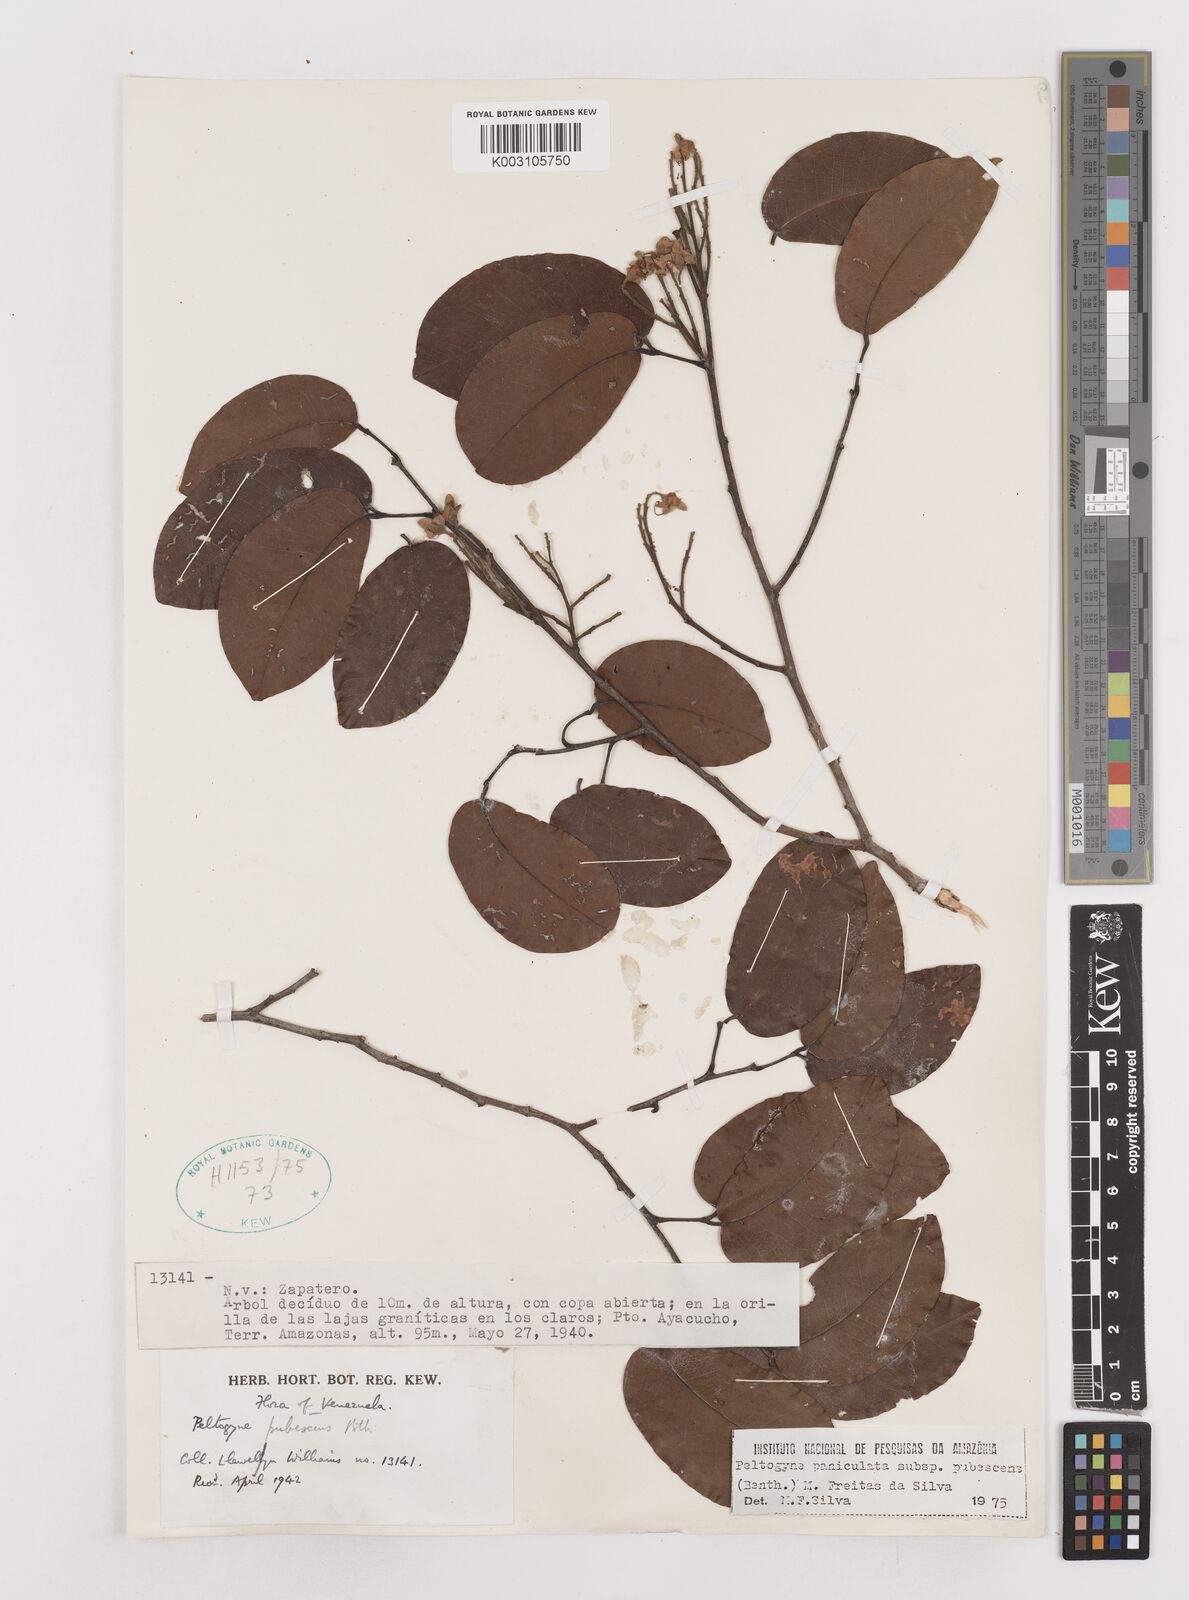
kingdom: Plantae
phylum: Tracheophyta
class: Magnoliopsida
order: Fabales
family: Fabaceae
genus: Peltogyne
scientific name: Peltogyne paniculata
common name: Purpleheart
